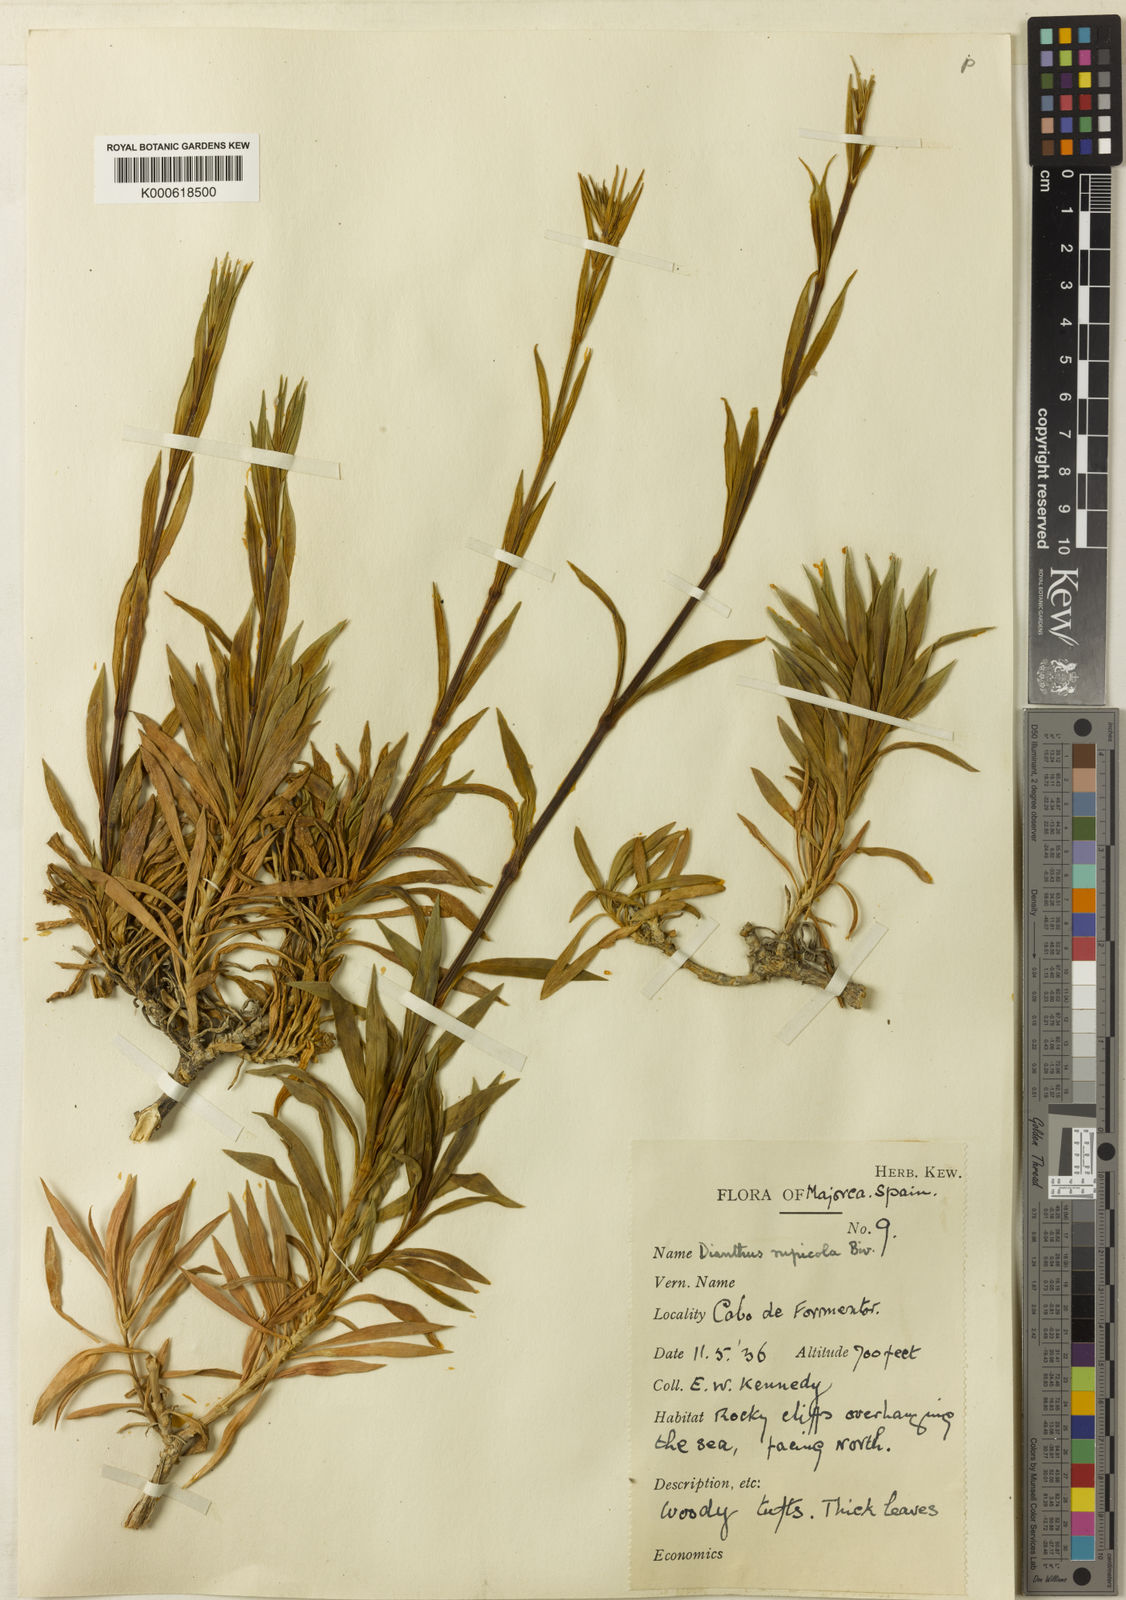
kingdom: Plantae
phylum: Tracheophyta
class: Magnoliopsida
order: Caryophyllales
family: Caryophyllaceae
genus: Dianthus
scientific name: Dianthus rupicola
